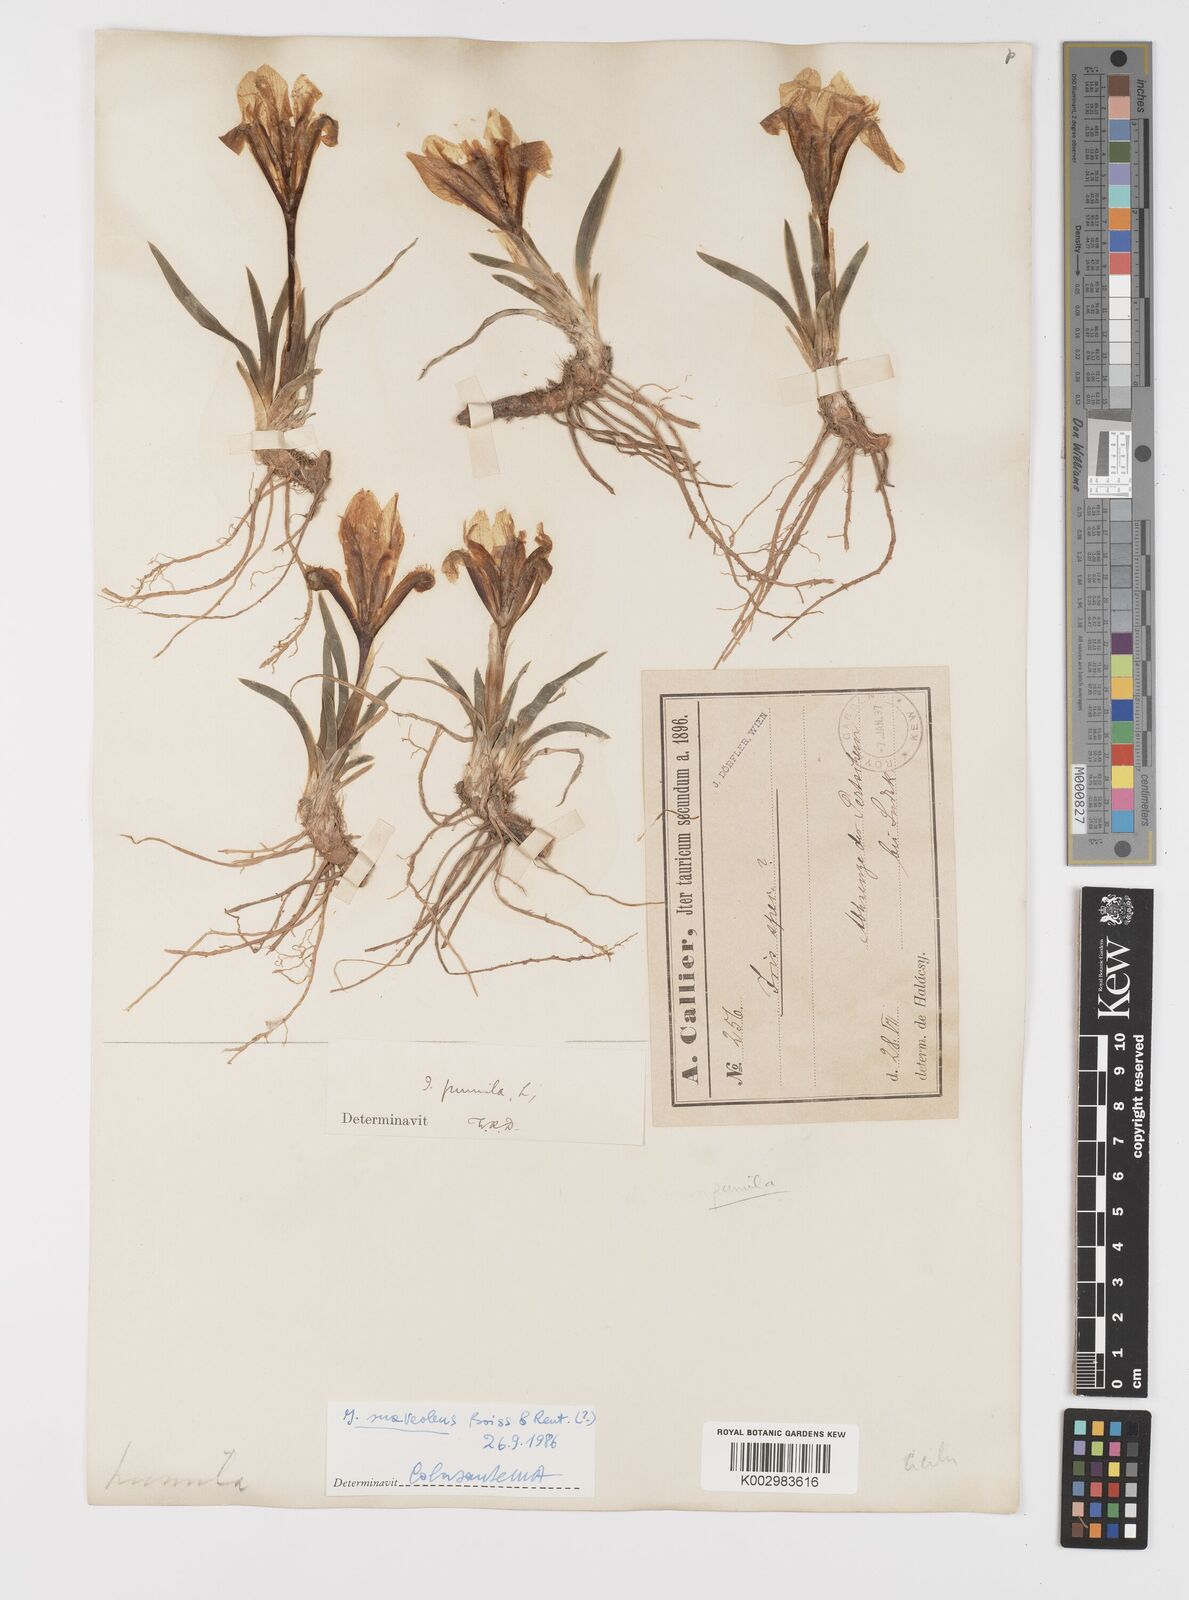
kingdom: Plantae
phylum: Tracheophyta
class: Liliopsida
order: Asparagales
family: Iridaceae
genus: Iris
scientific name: Iris pumila
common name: Dwarf iris
